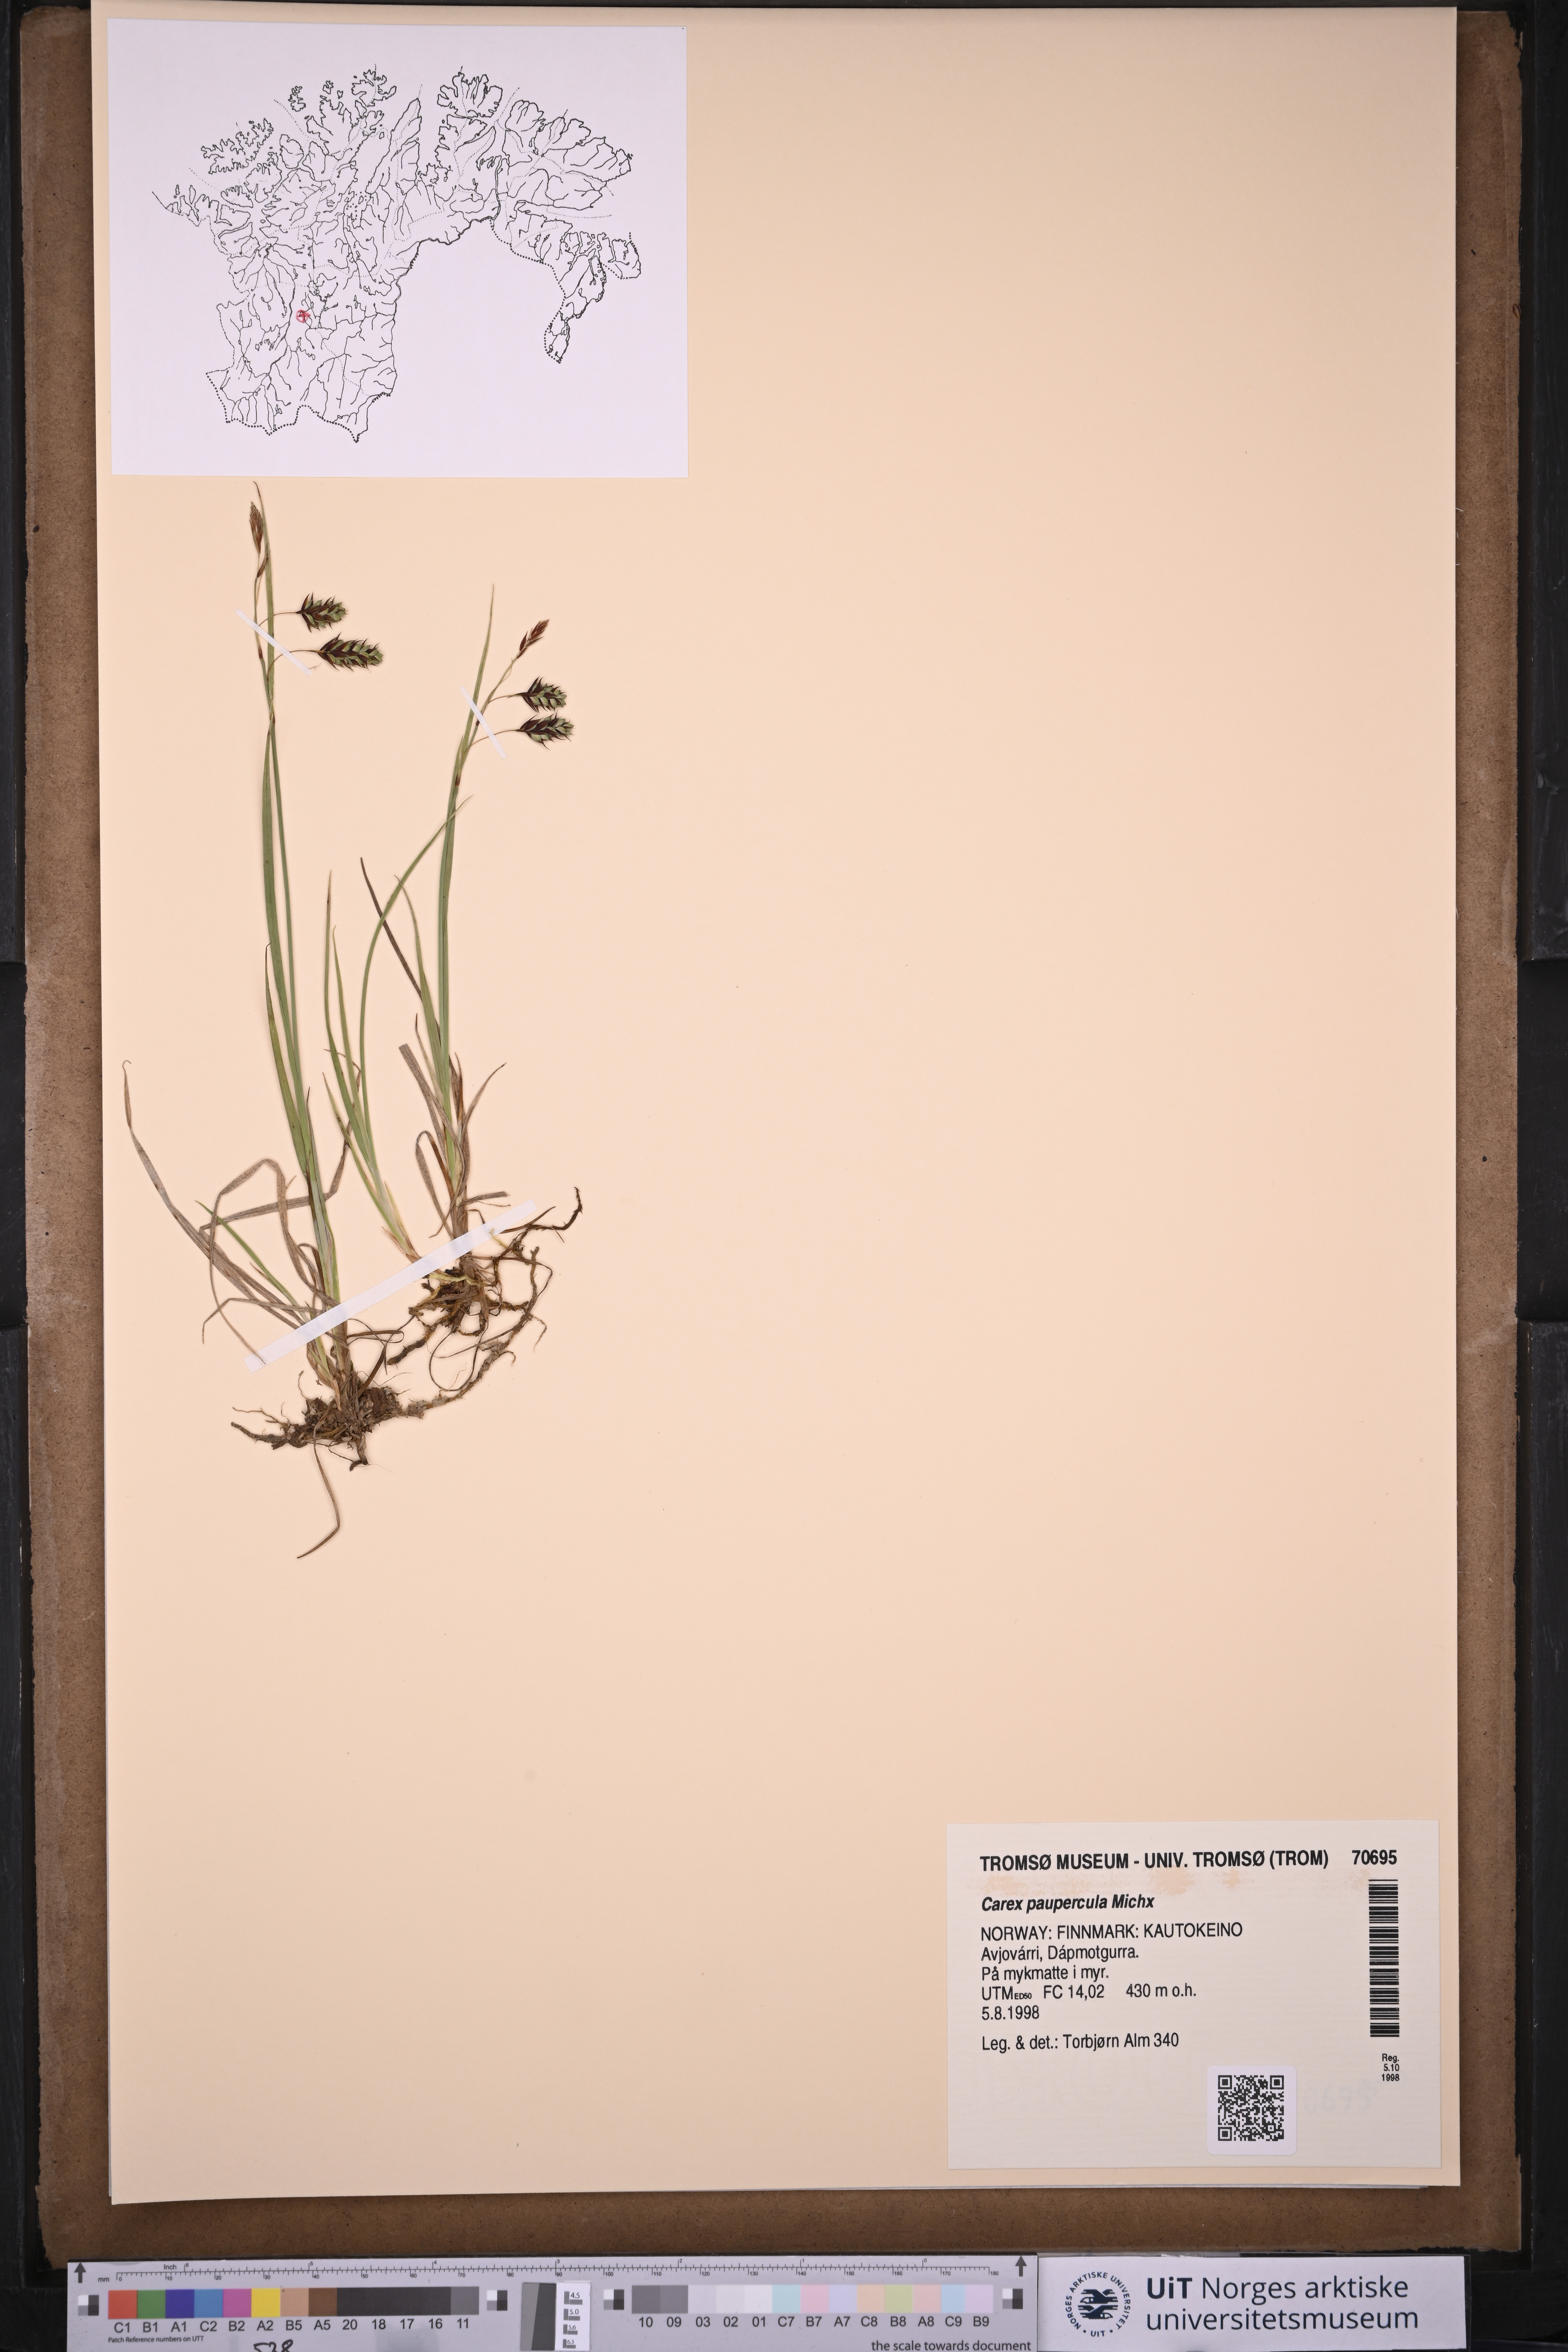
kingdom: Plantae
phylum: Tracheophyta
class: Liliopsida
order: Poales
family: Cyperaceae
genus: Carex
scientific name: Carex magellanica
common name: Bog sedge
